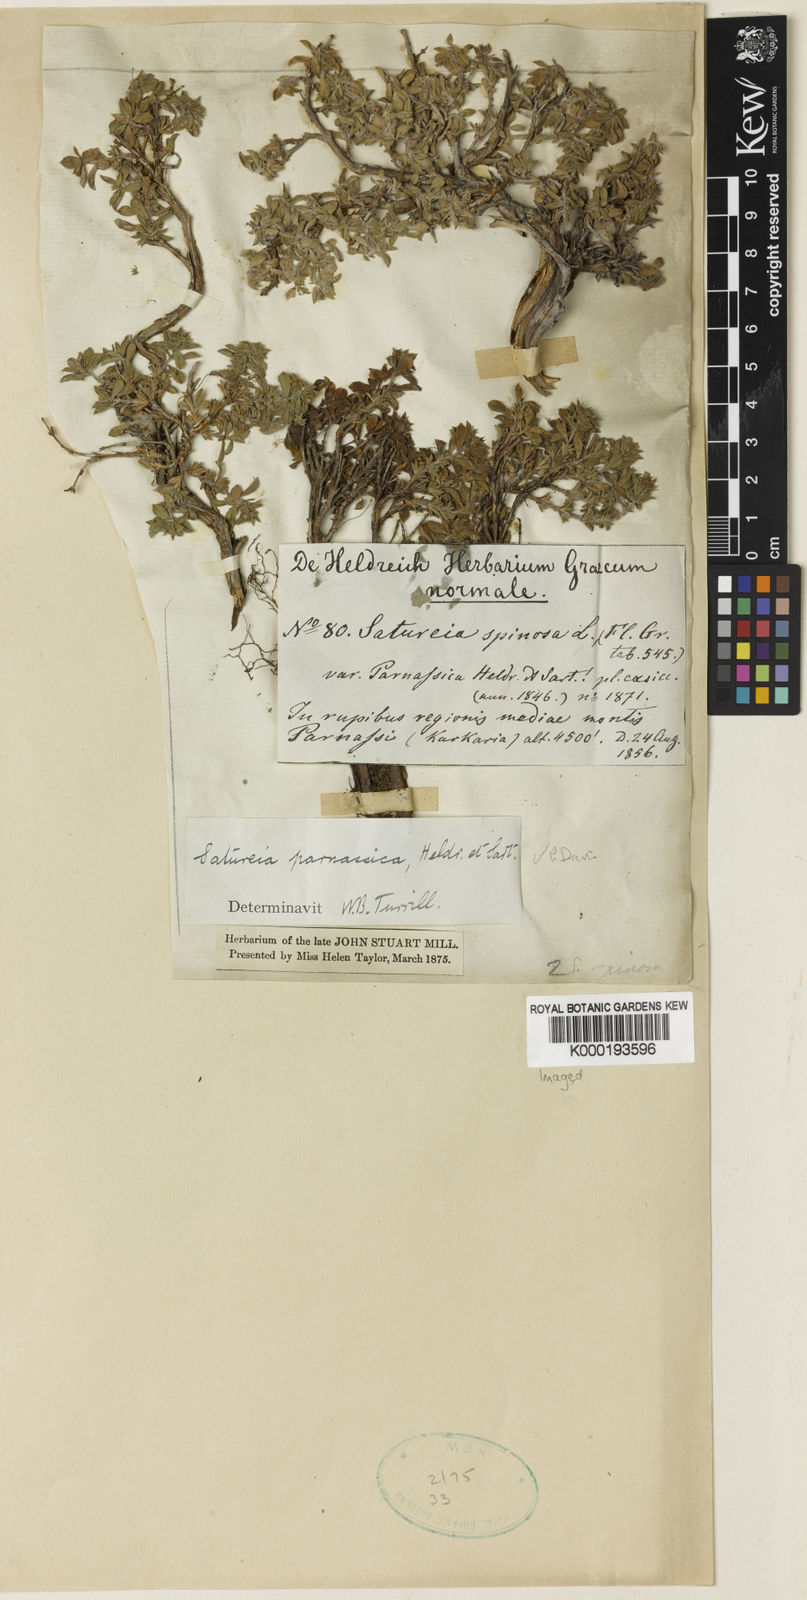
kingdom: Plantae
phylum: Tracheophyta
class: Magnoliopsida
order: Lamiales
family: Lamiaceae
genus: Satureja
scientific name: Satureja
